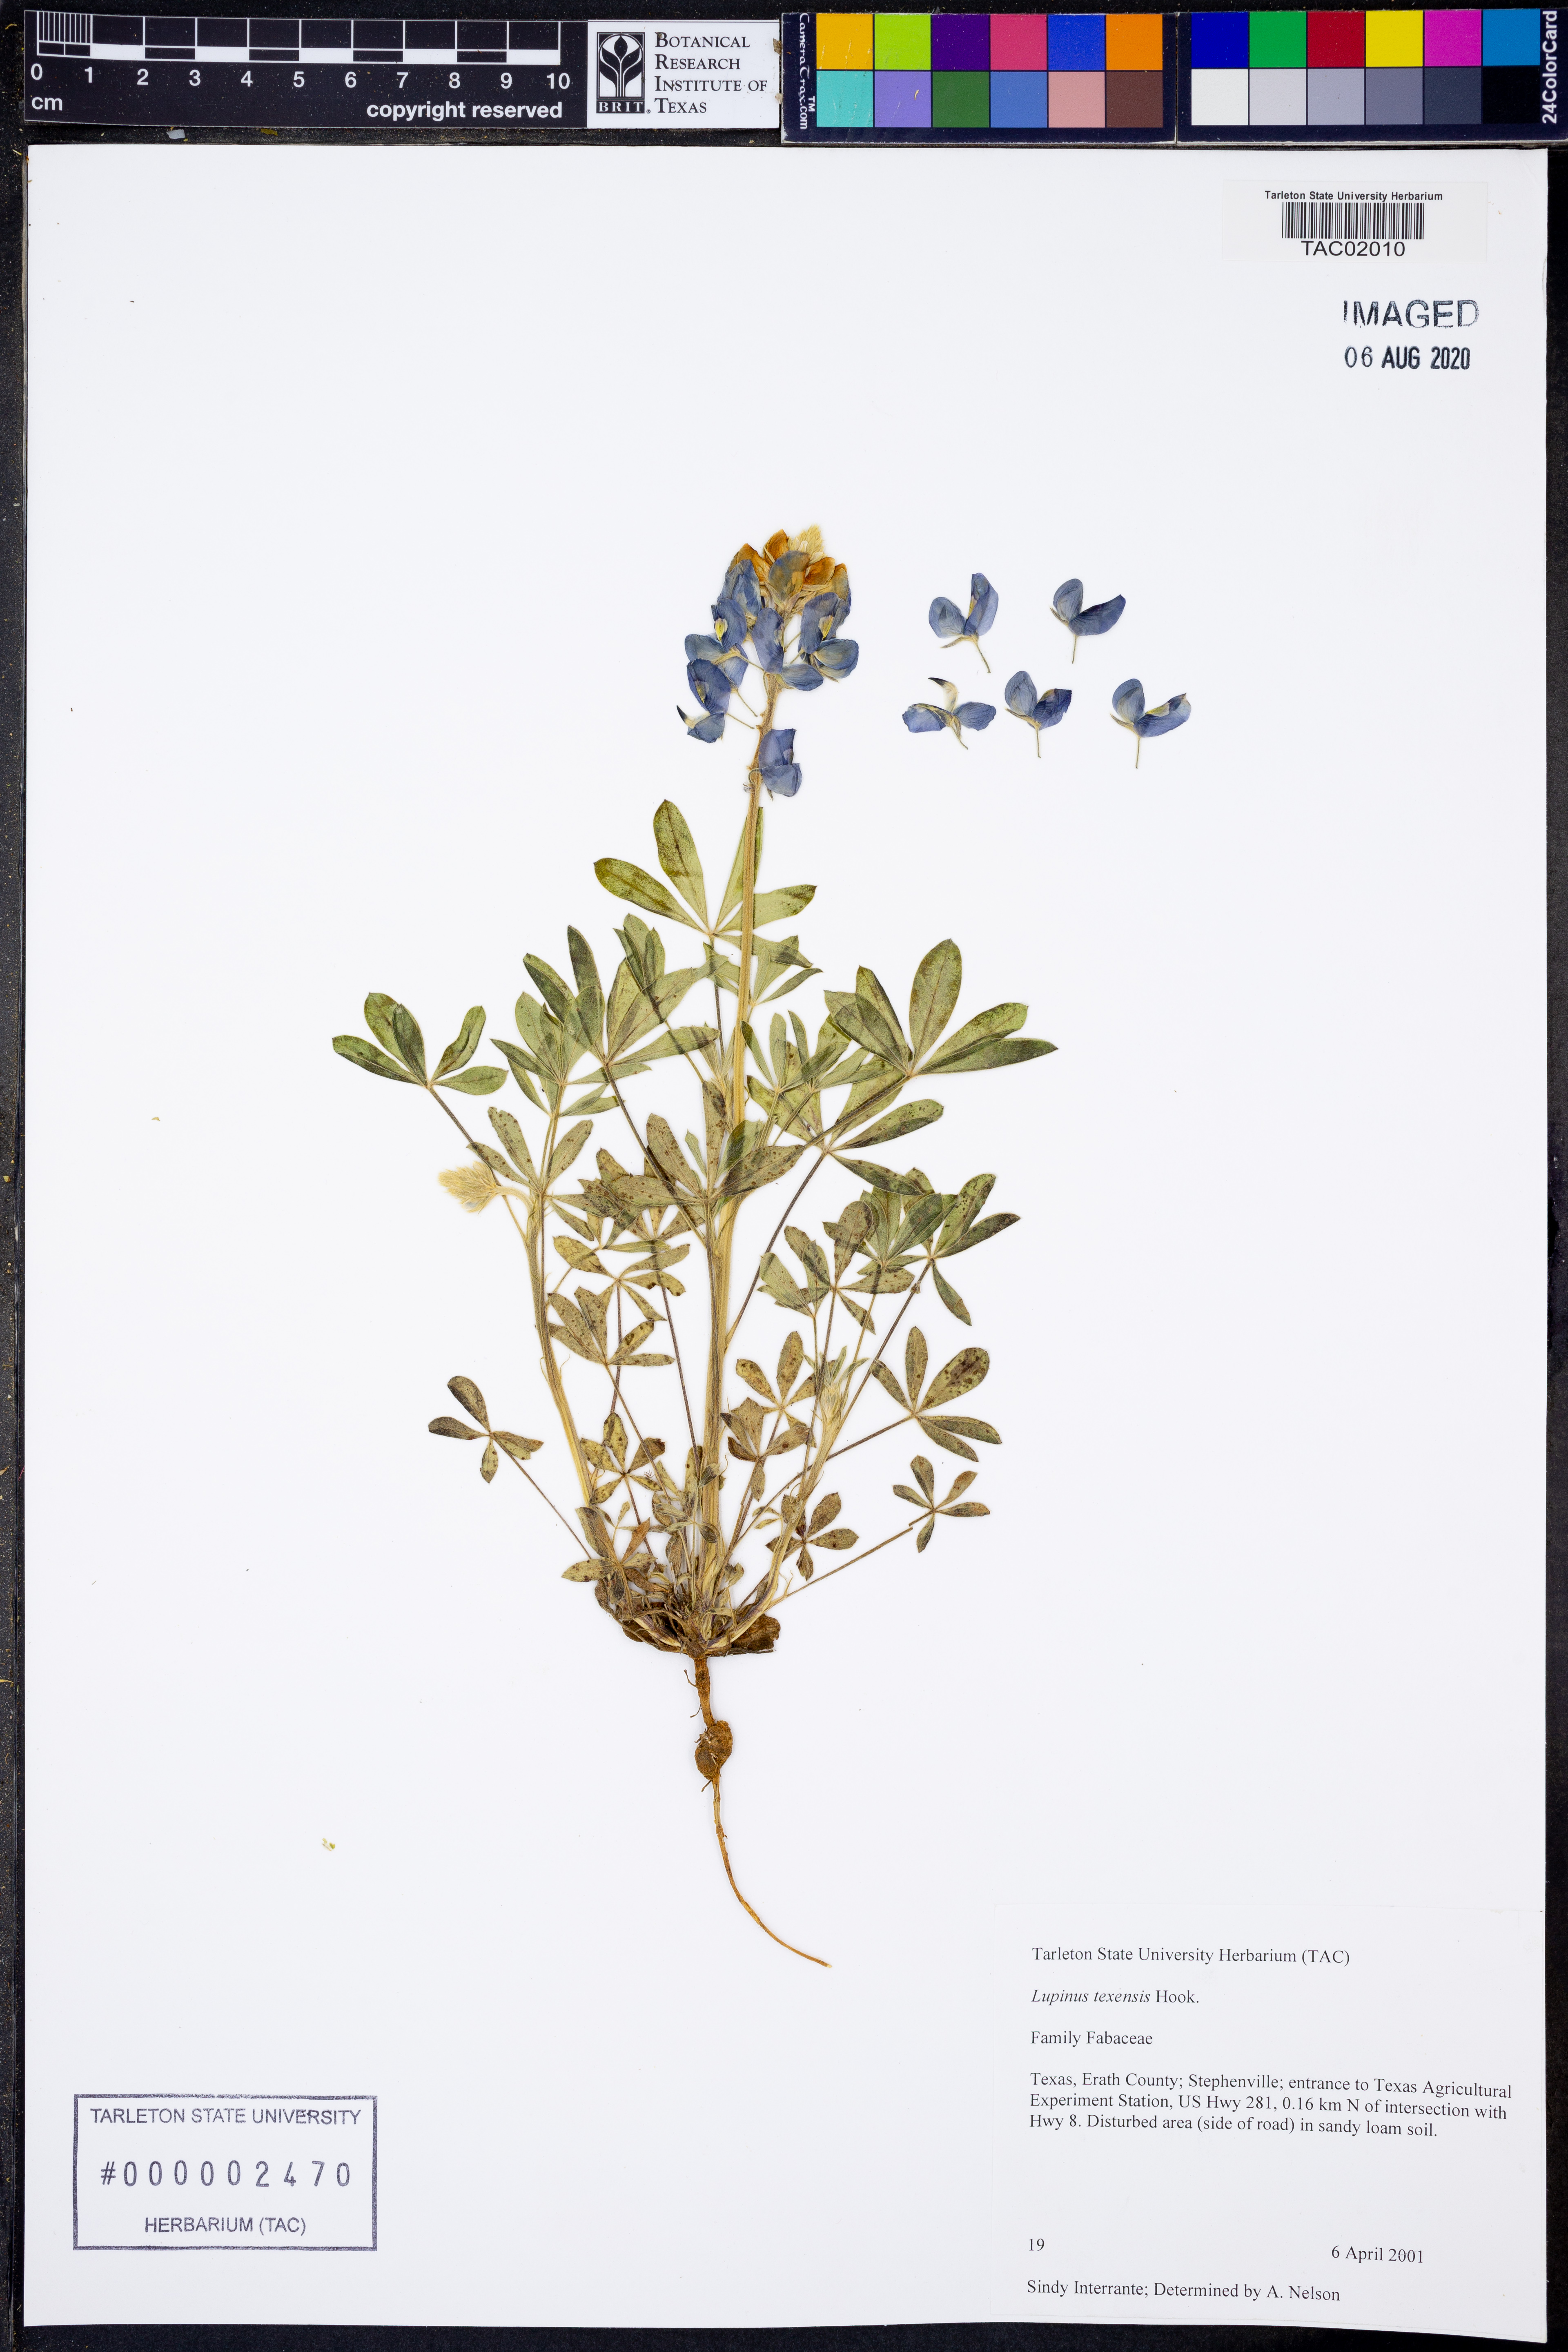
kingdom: Plantae
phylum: Tracheophyta
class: Magnoliopsida
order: Fabales
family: Fabaceae
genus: Lupinus
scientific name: Lupinus texensis
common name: Texas bluebonnet
